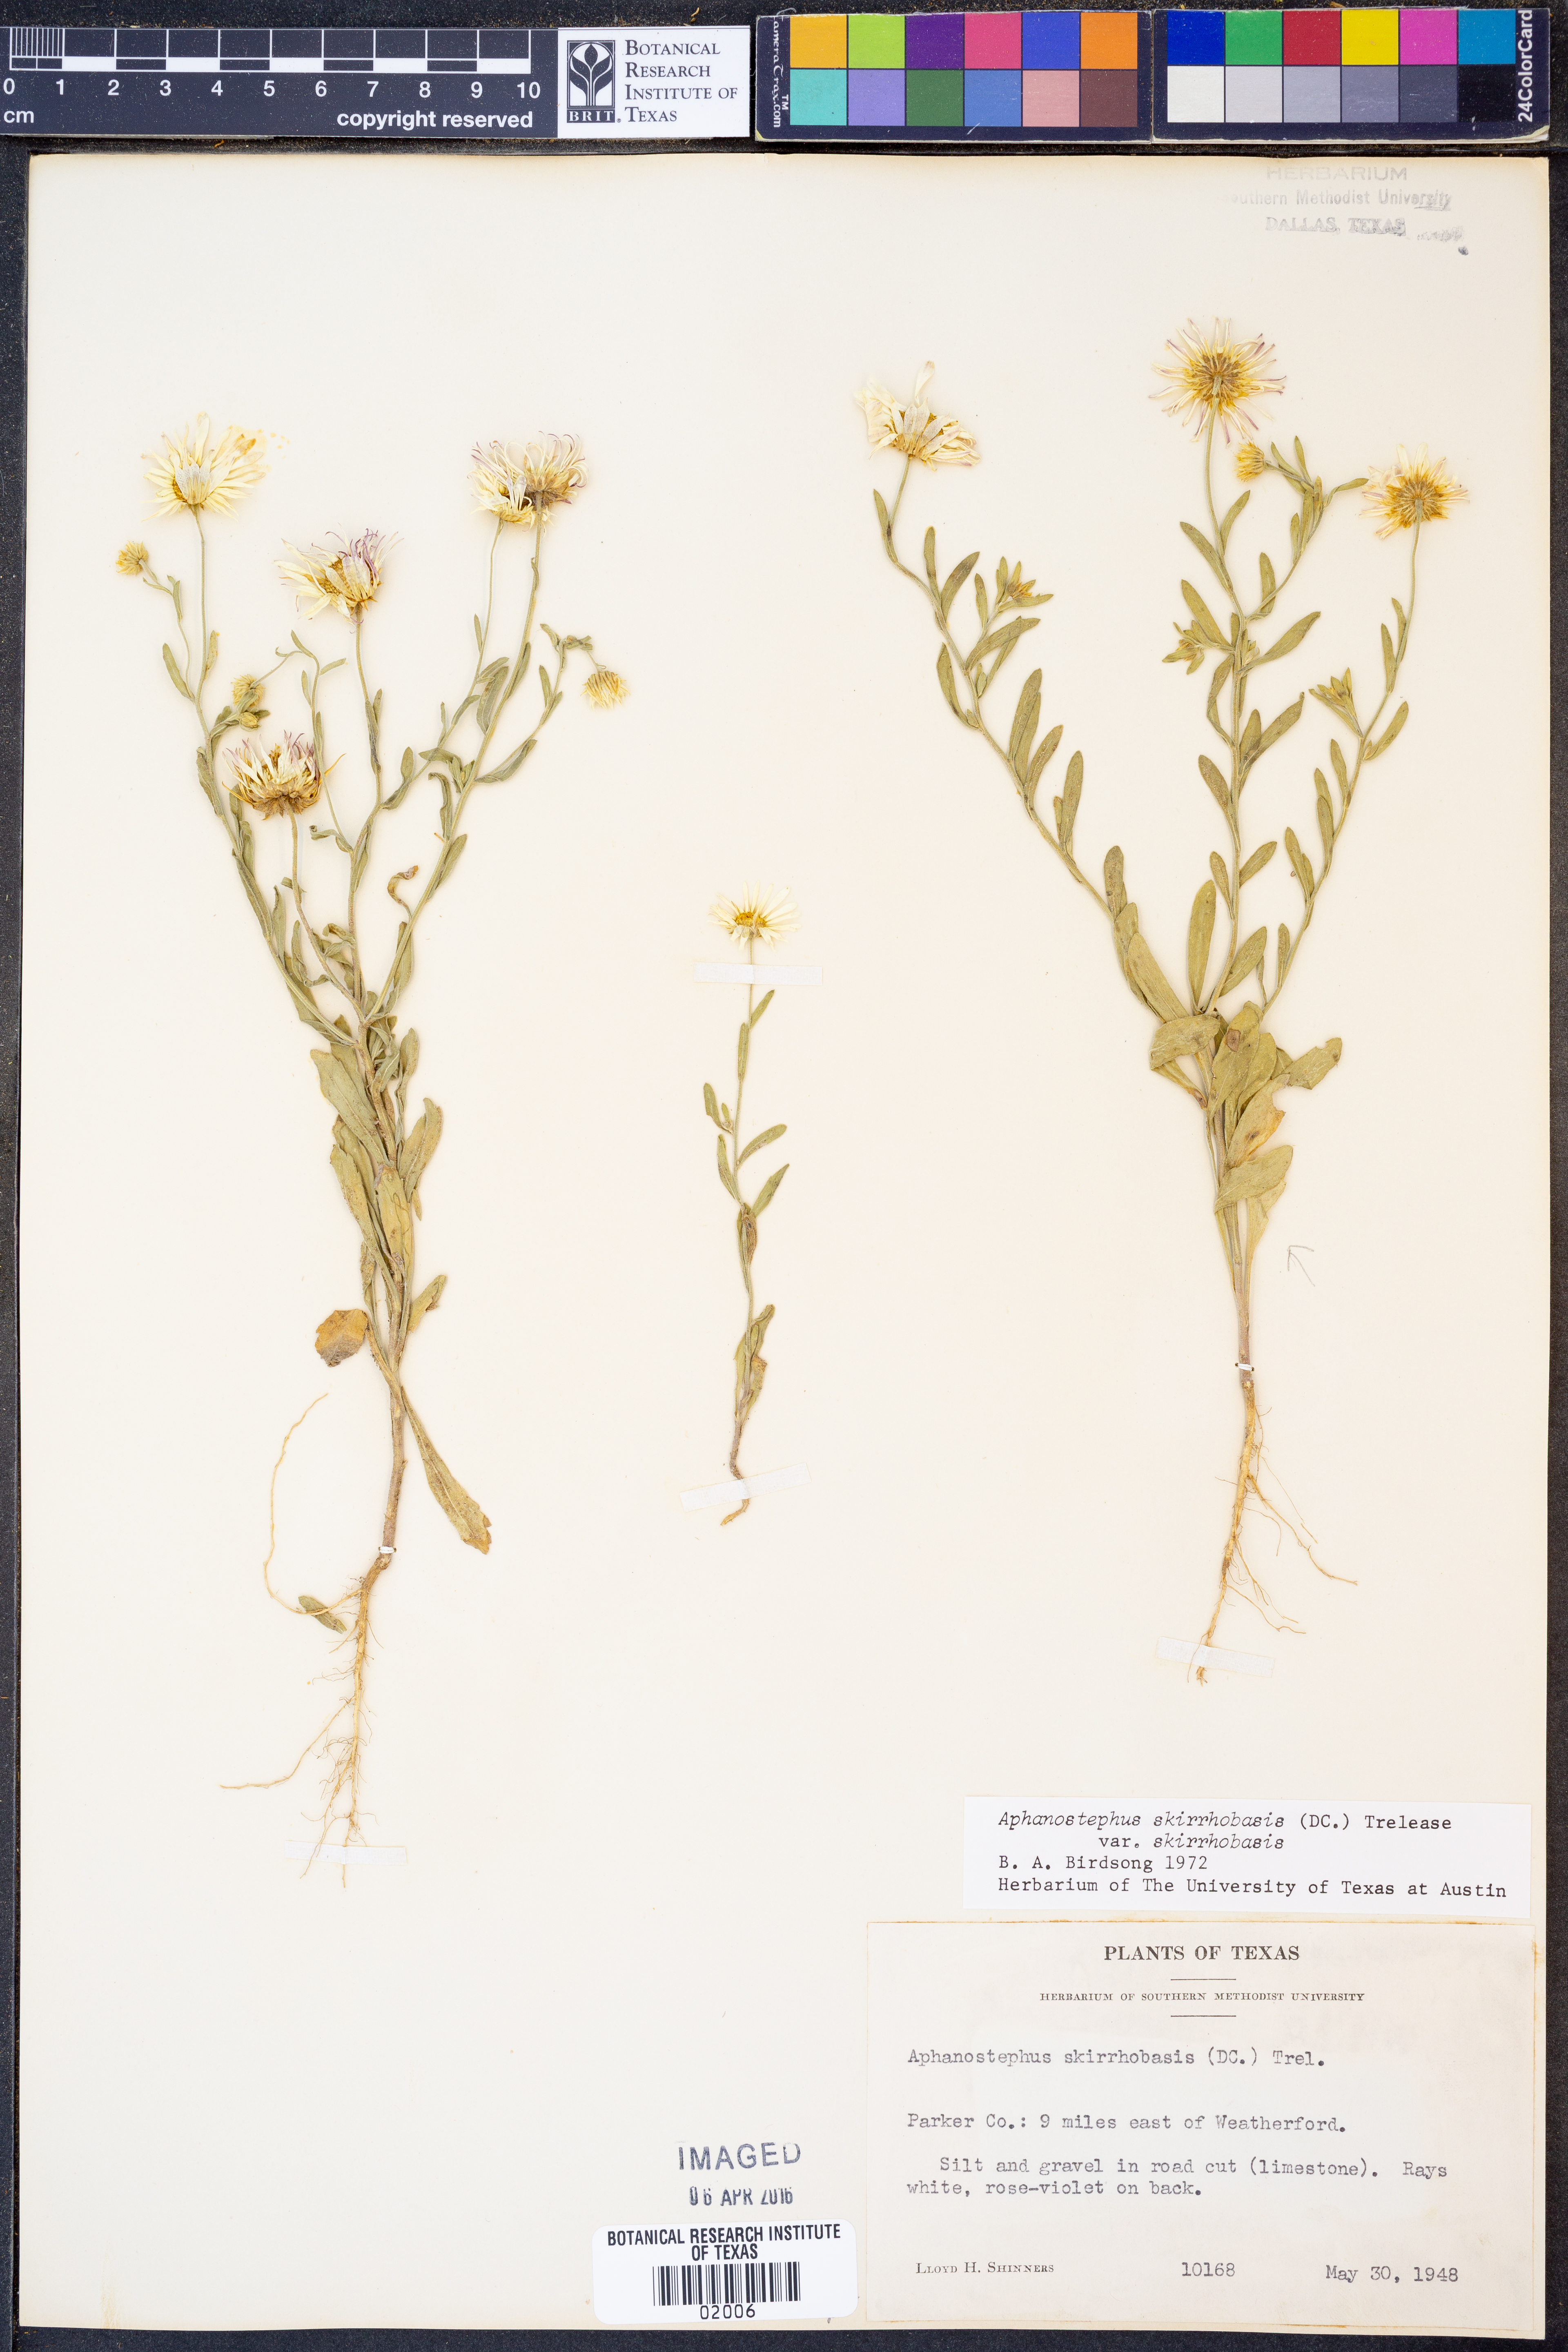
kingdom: Plantae
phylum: Tracheophyta
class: Magnoliopsida
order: Asterales
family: Asteraceae
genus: Aphanostephus
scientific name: Aphanostephus skirrhobasis
